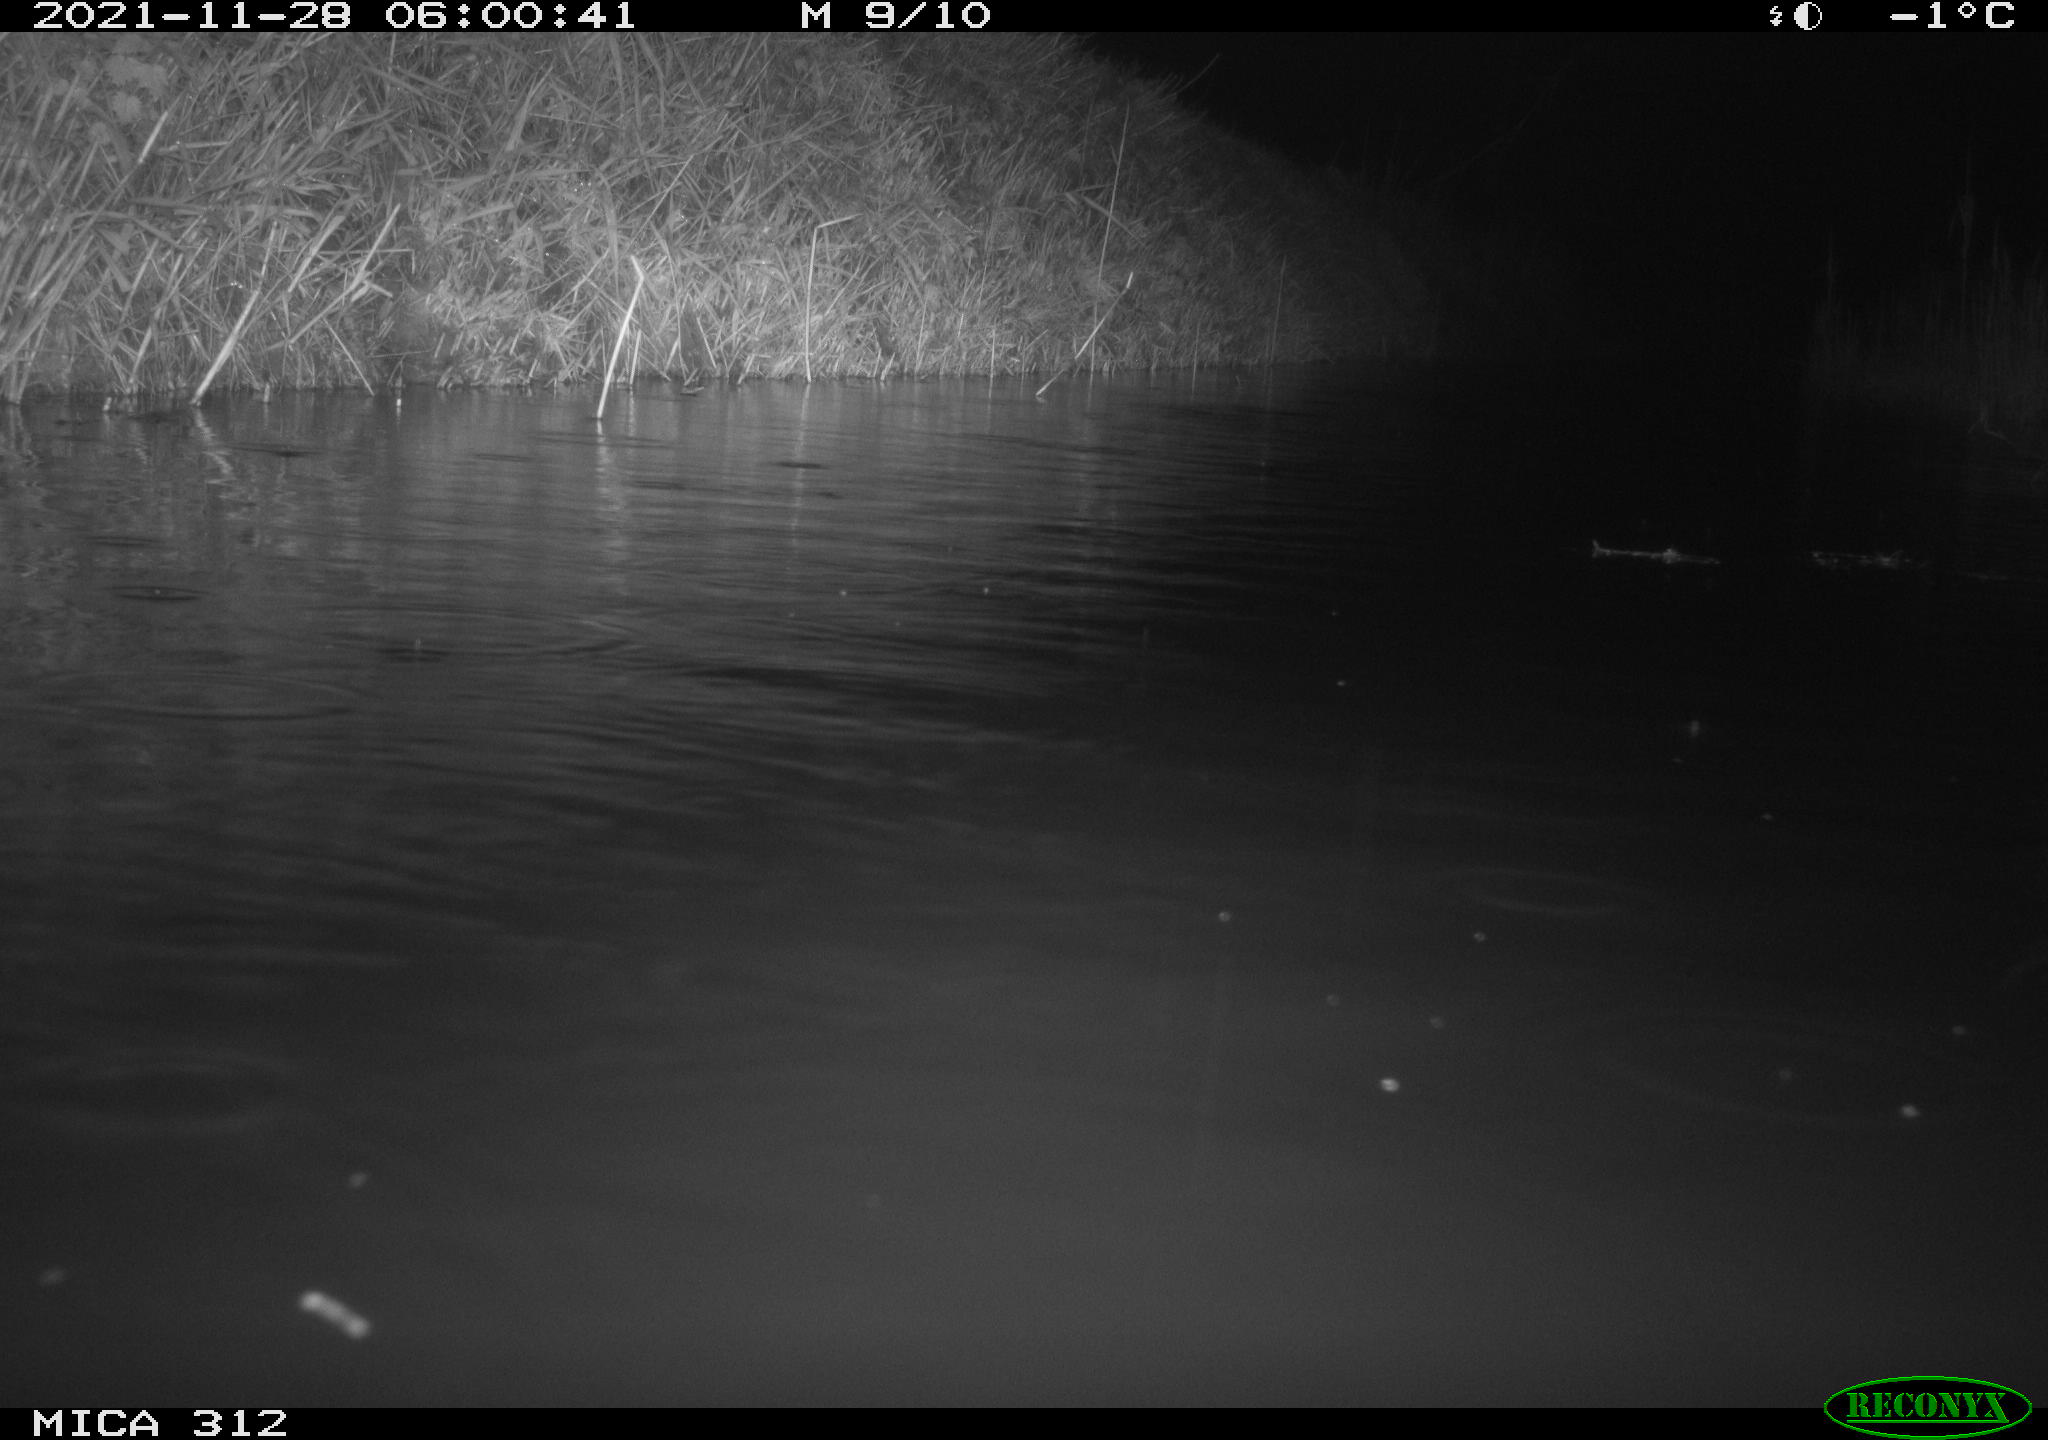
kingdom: Animalia
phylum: Chordata
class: Mammalia
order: Rodentia
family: Muridae
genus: Rattus
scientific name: Rattus norvegicus
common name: Brown rat
